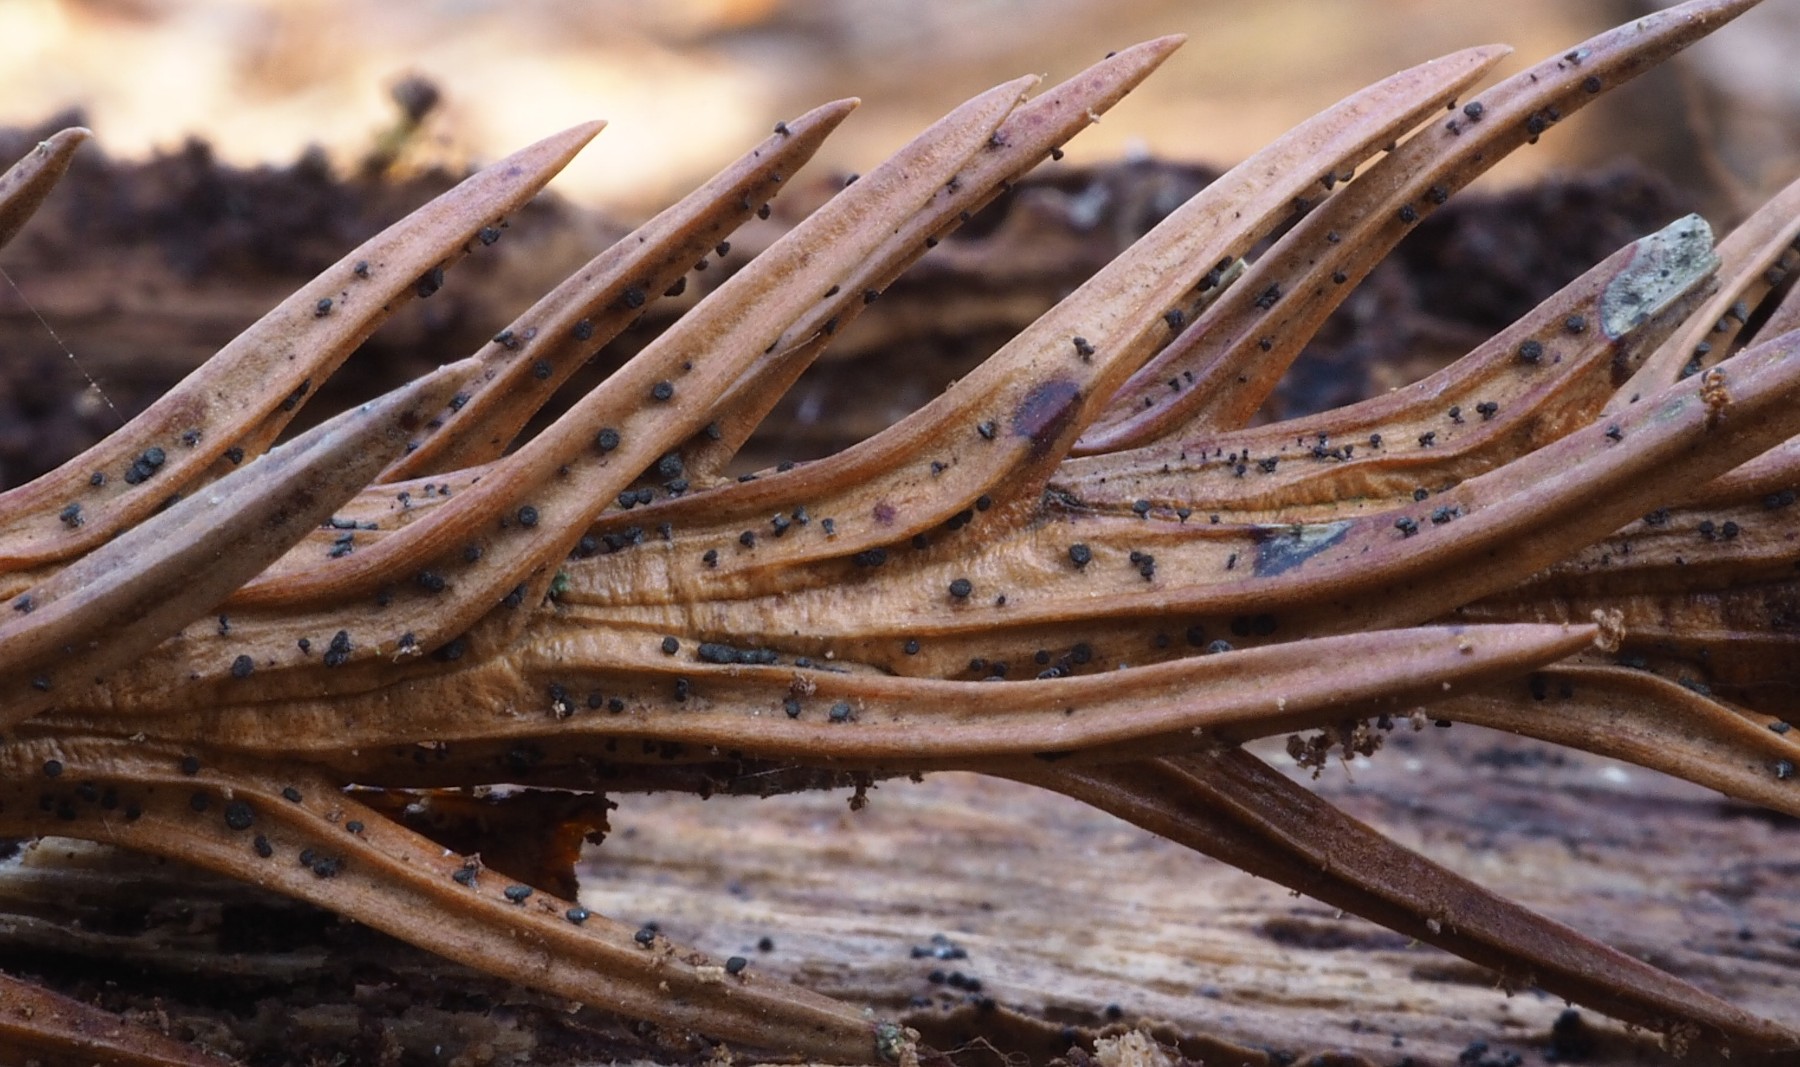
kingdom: Fungi
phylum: Ascomycota
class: Leotiomycetes
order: Helotiales
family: Gelatinodiscaceae
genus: Chloroscypha
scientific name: Chloroscypha seaveri
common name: kortstilket cypresskive
